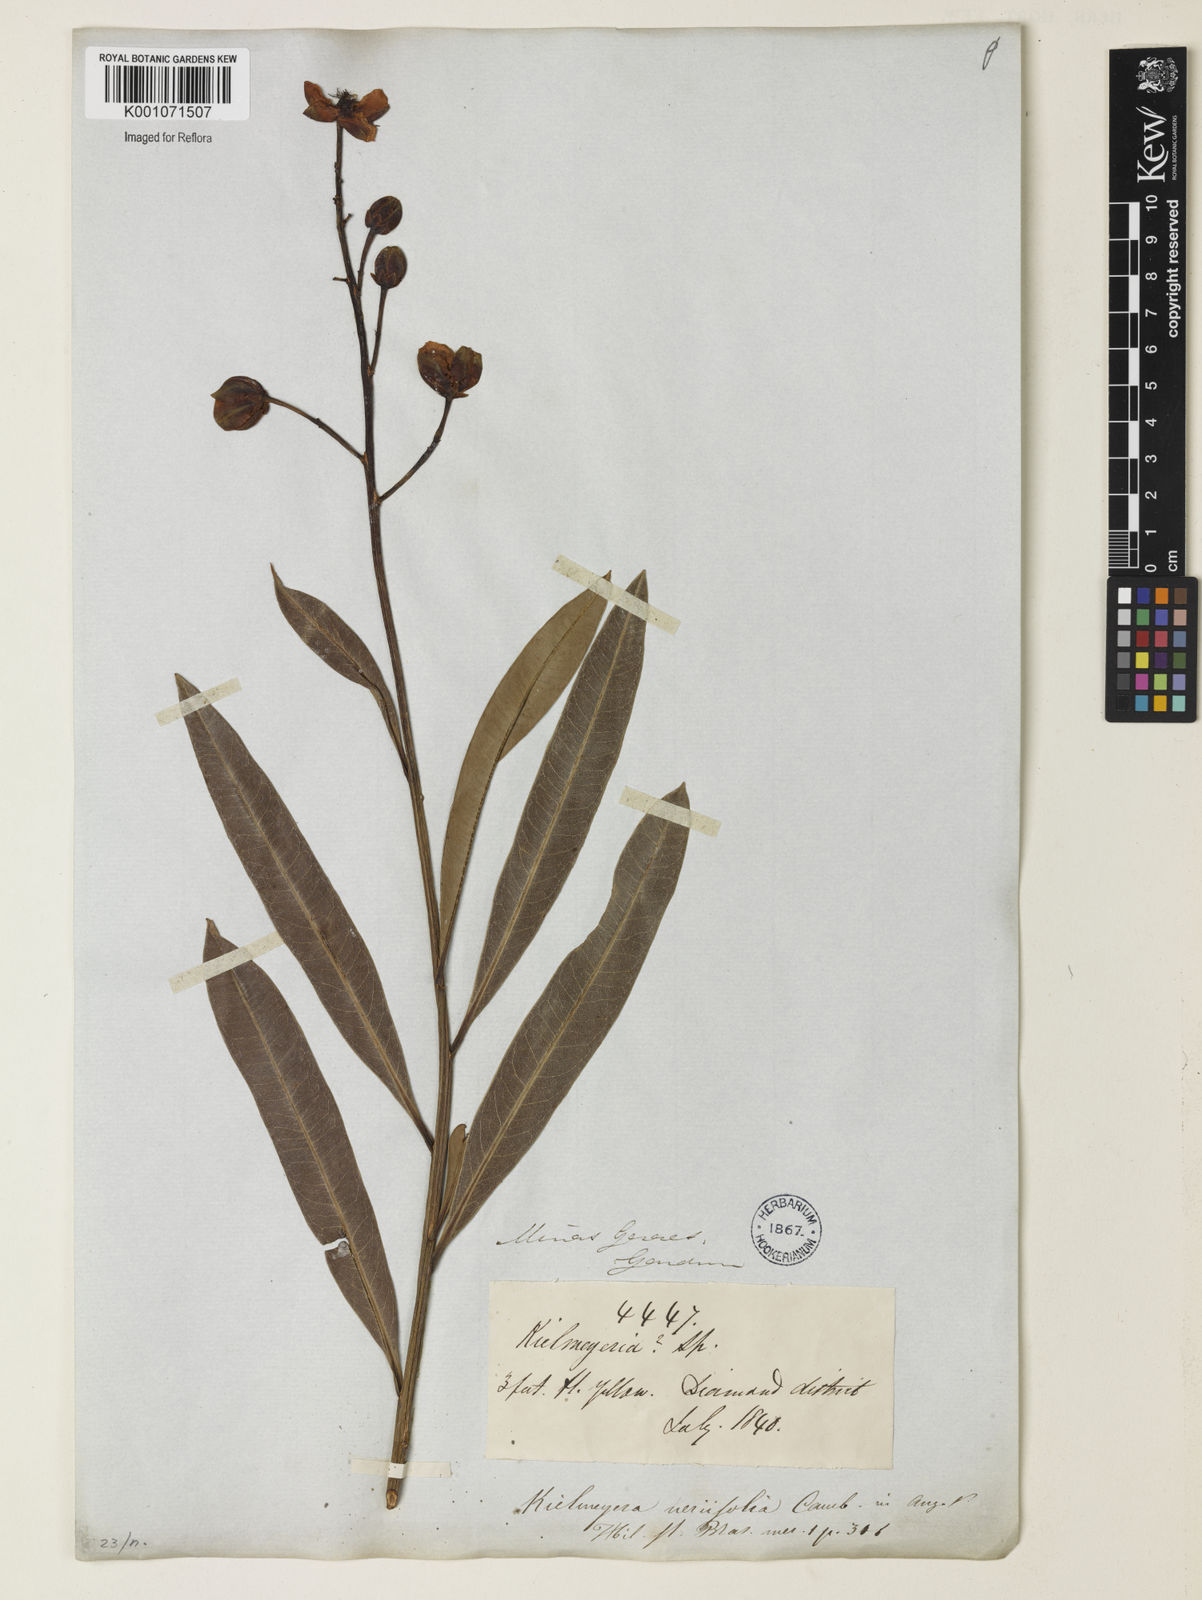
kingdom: Plantae
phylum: Tracheophyta
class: Magnoliopsida
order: Malpighiales
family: Calophyllaceae
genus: Kielmeyera
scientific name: Kielmeyera abdita
